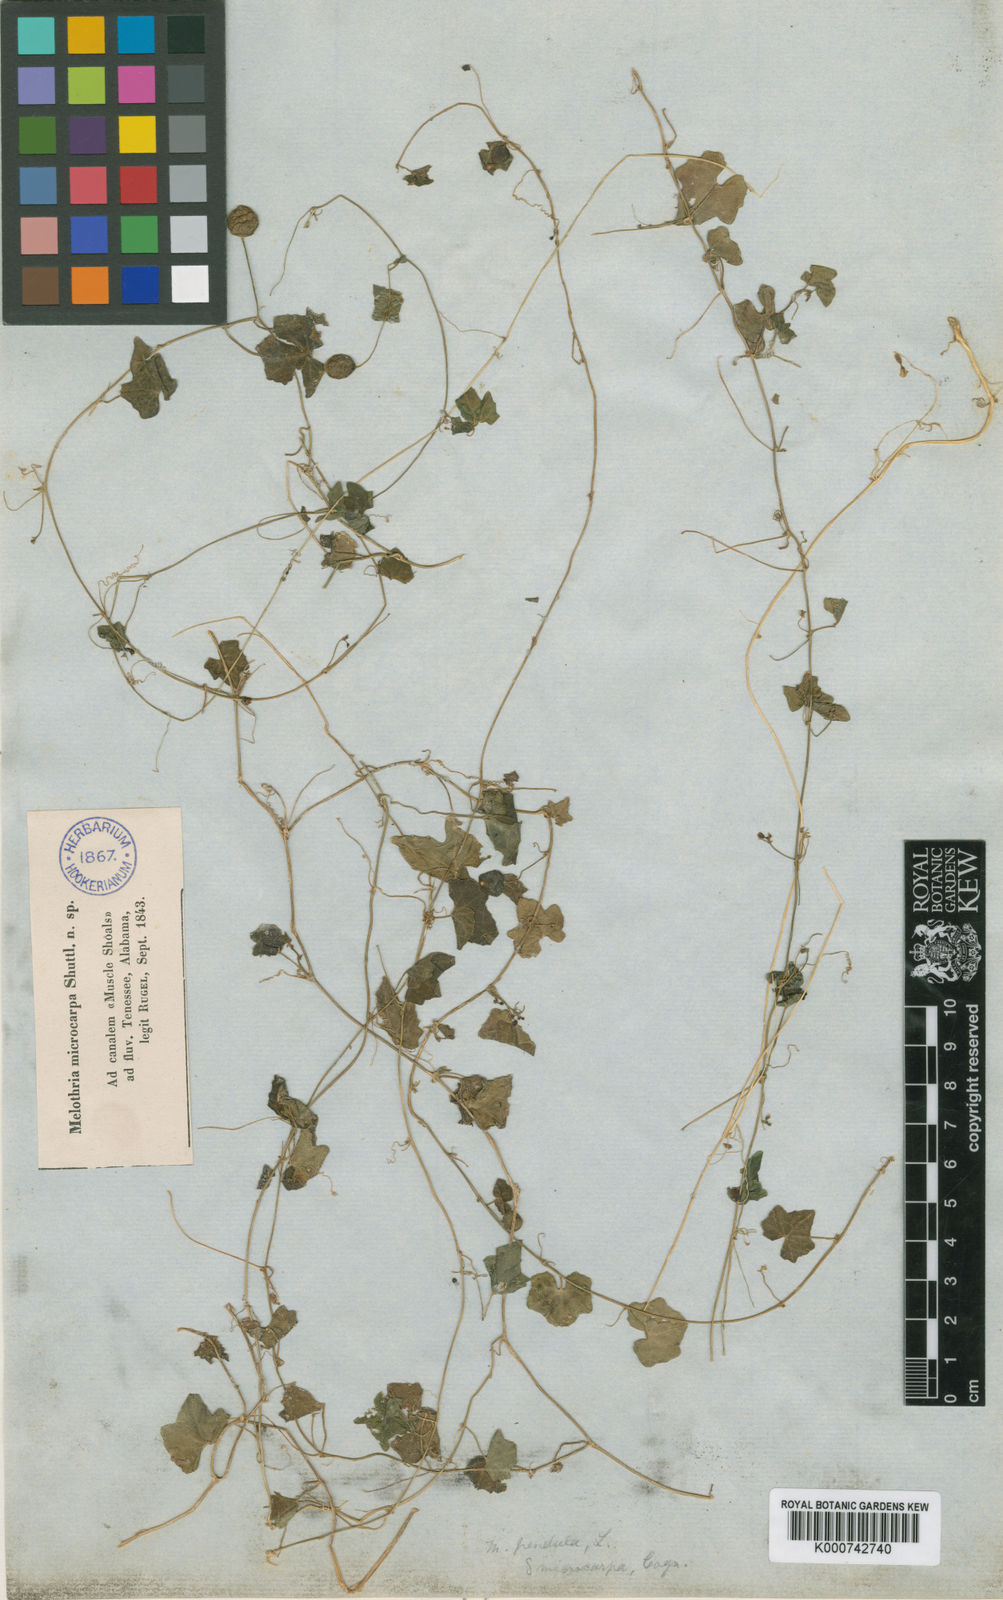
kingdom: Plantae
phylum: Tracheophyta
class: Magnoliopsida
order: Cucurbitales
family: Cucurbitaceae
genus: Melothria
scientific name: Melothria pendula
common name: Creeping-cucumber
